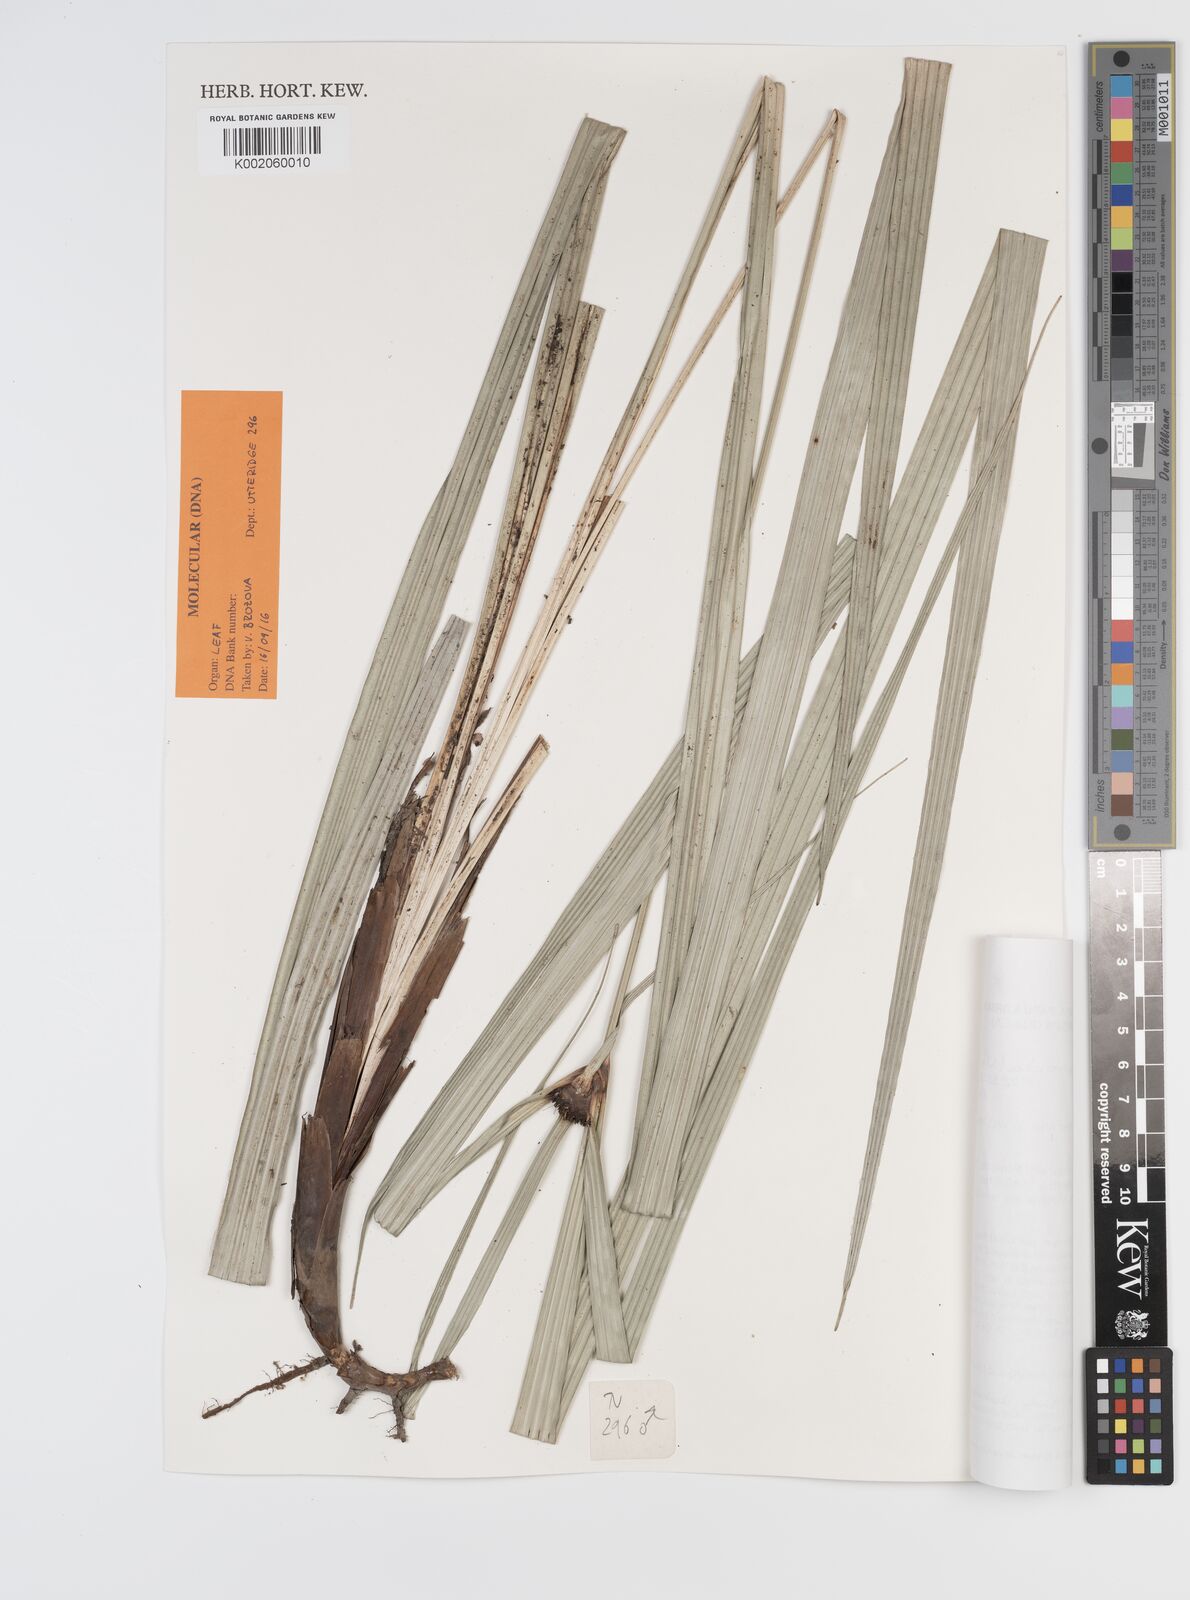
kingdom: Plantae
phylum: Tracheophyta
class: Liliopsida
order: Poales
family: Cyperaceae
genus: Capitularina
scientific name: Capitularina involucrata
